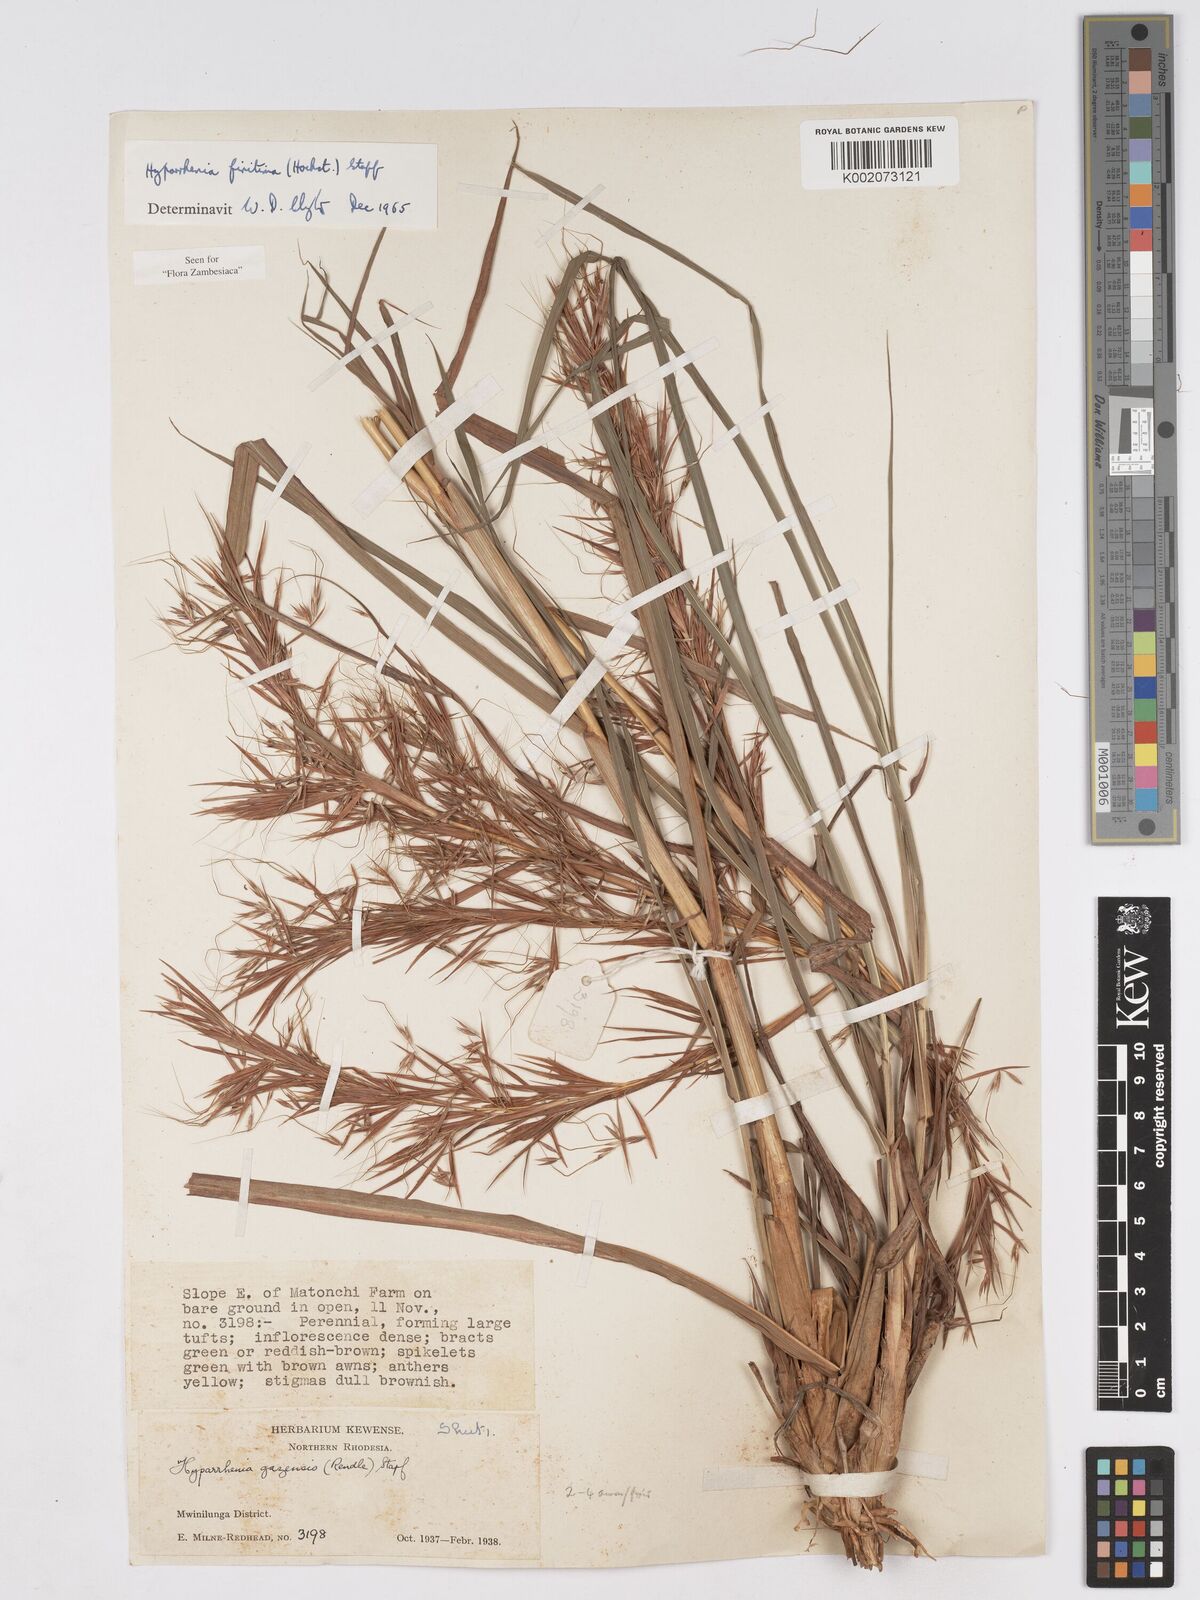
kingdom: Plantae
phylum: Tracheophyta
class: Liliopsida
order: Poales
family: Poaceae
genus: Hyparrhenia
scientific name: Hyparrhenia finitima
